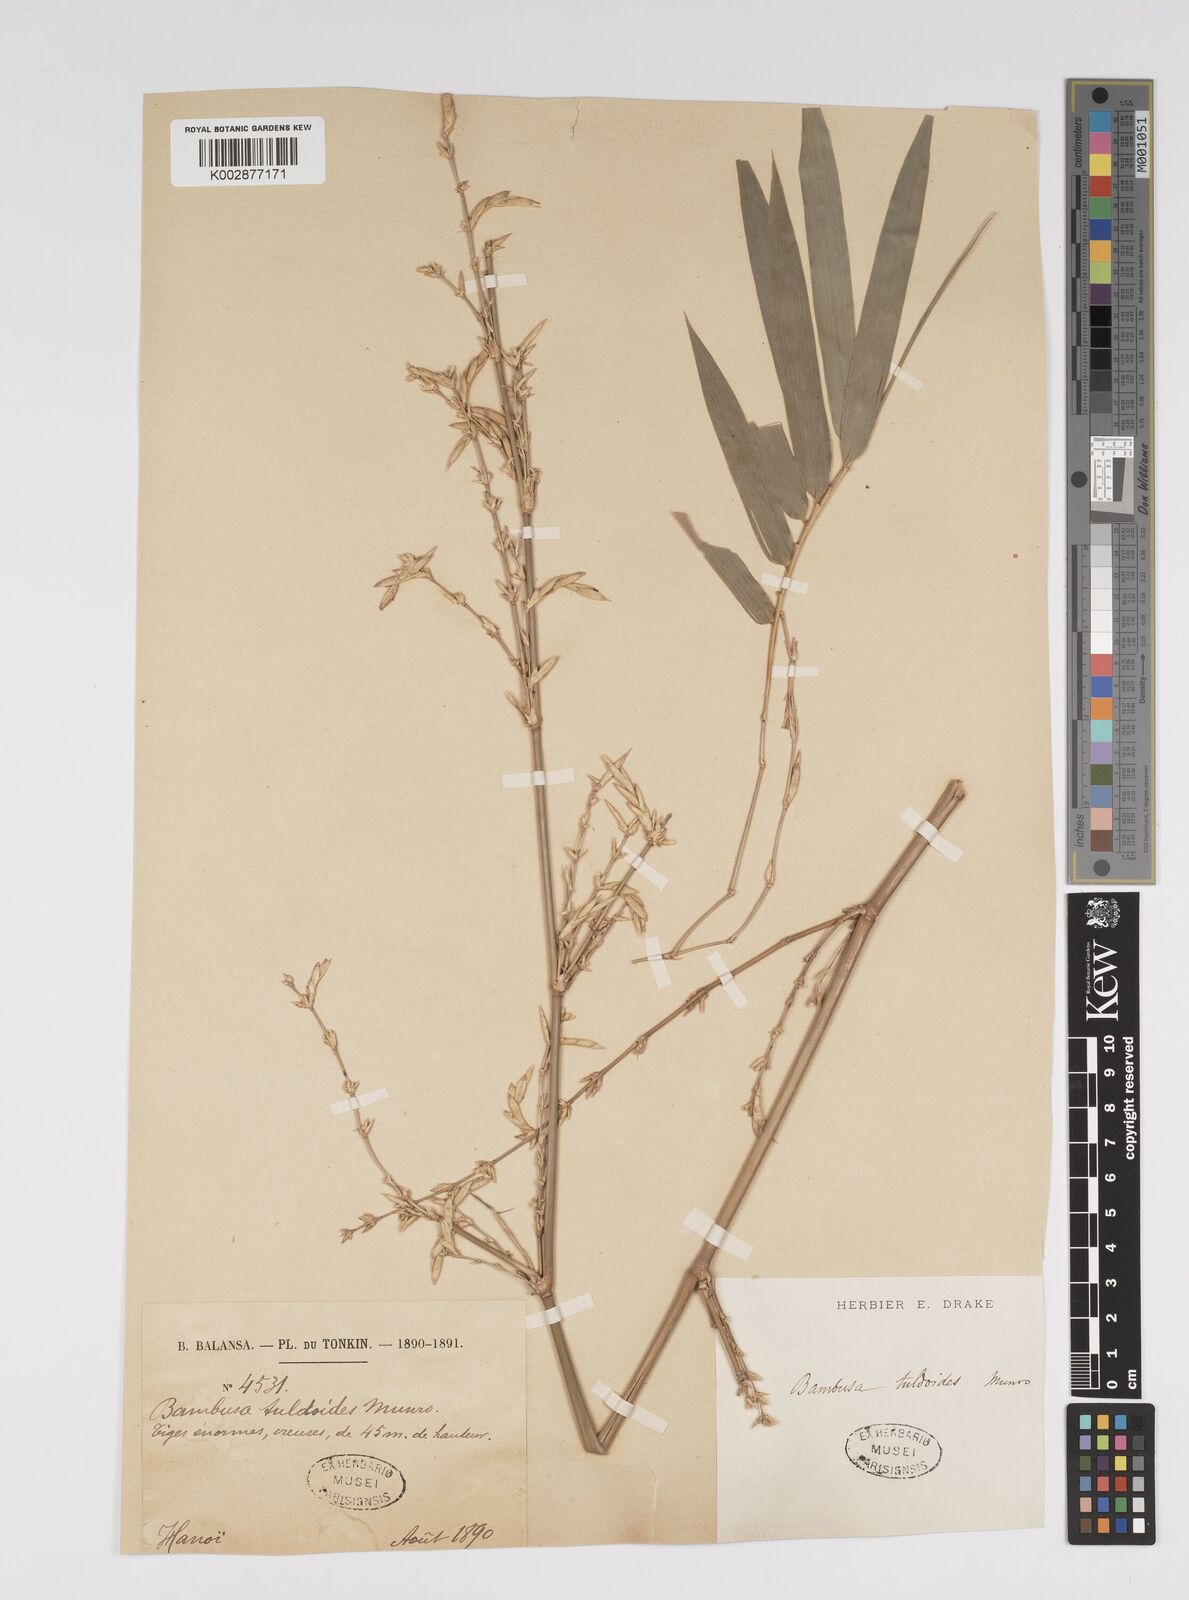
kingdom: Plantae
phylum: Tracheophyta
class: Liliopsida
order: Poales
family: Poaceae
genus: Bambusa
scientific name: Bambusa tuldoides
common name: Verdant bamboo
